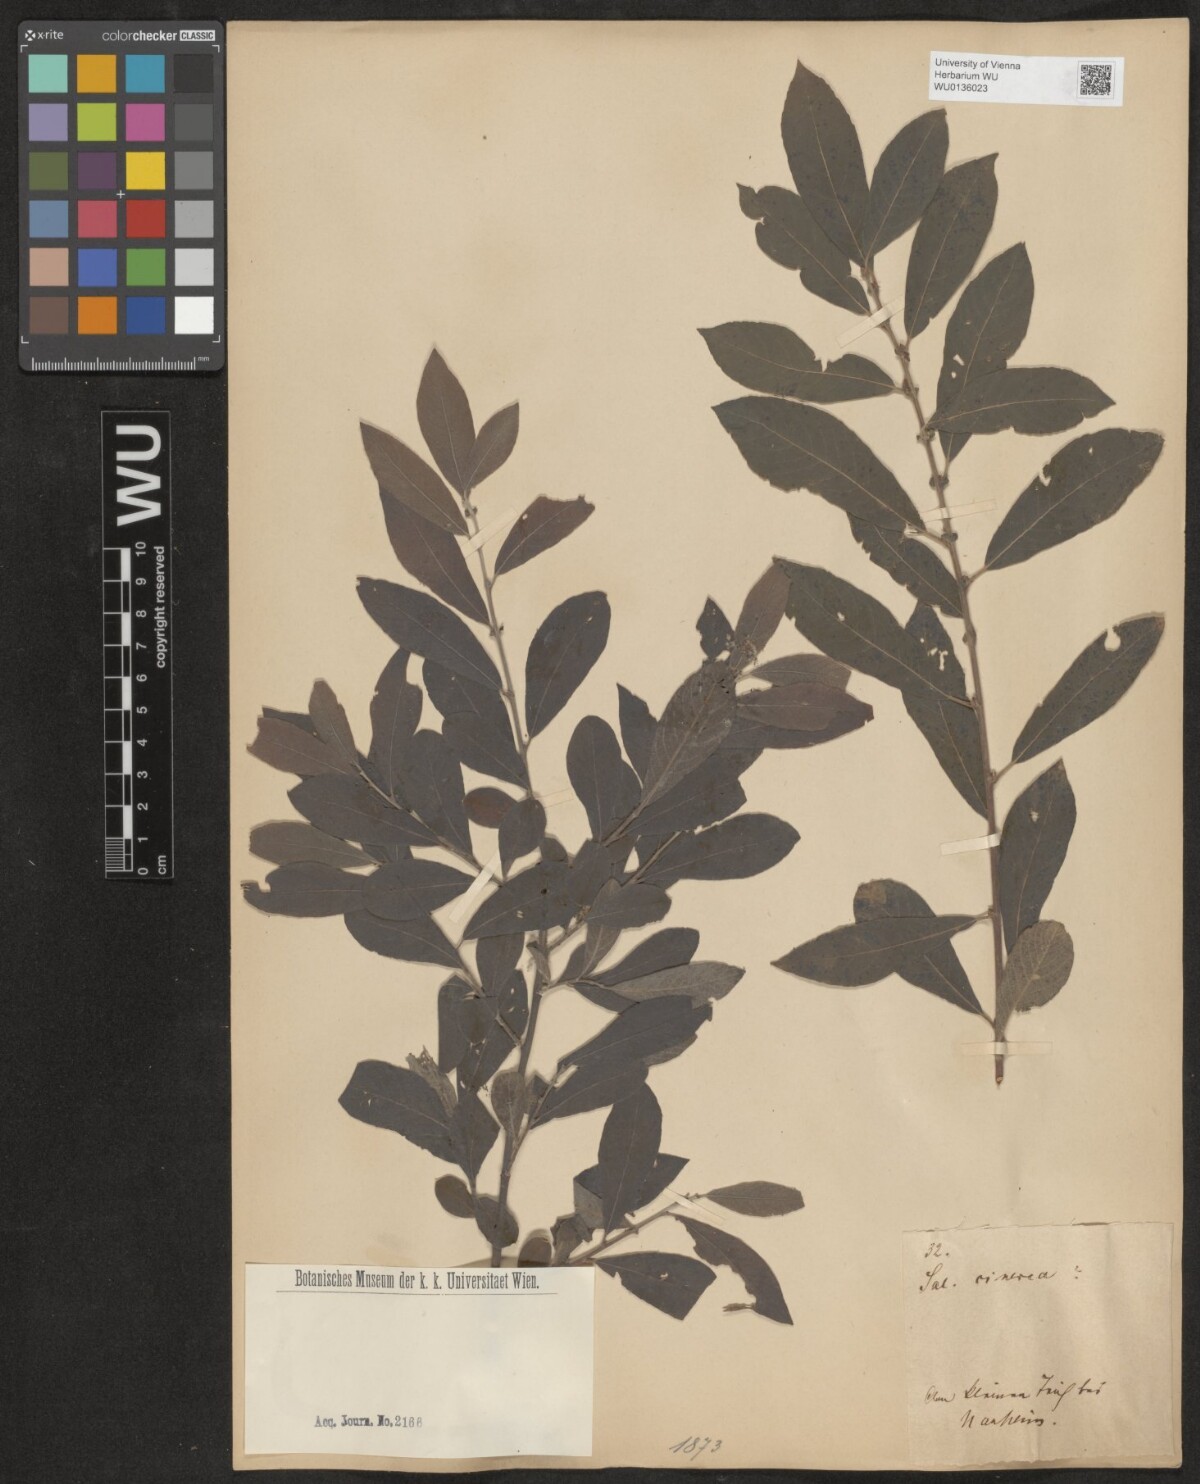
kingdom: Plantae
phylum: Tracheophyta
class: Magnoliopsida
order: Malpighiales
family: Salicaceae
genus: Salix
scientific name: Salix cinerea
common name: Common sallow
